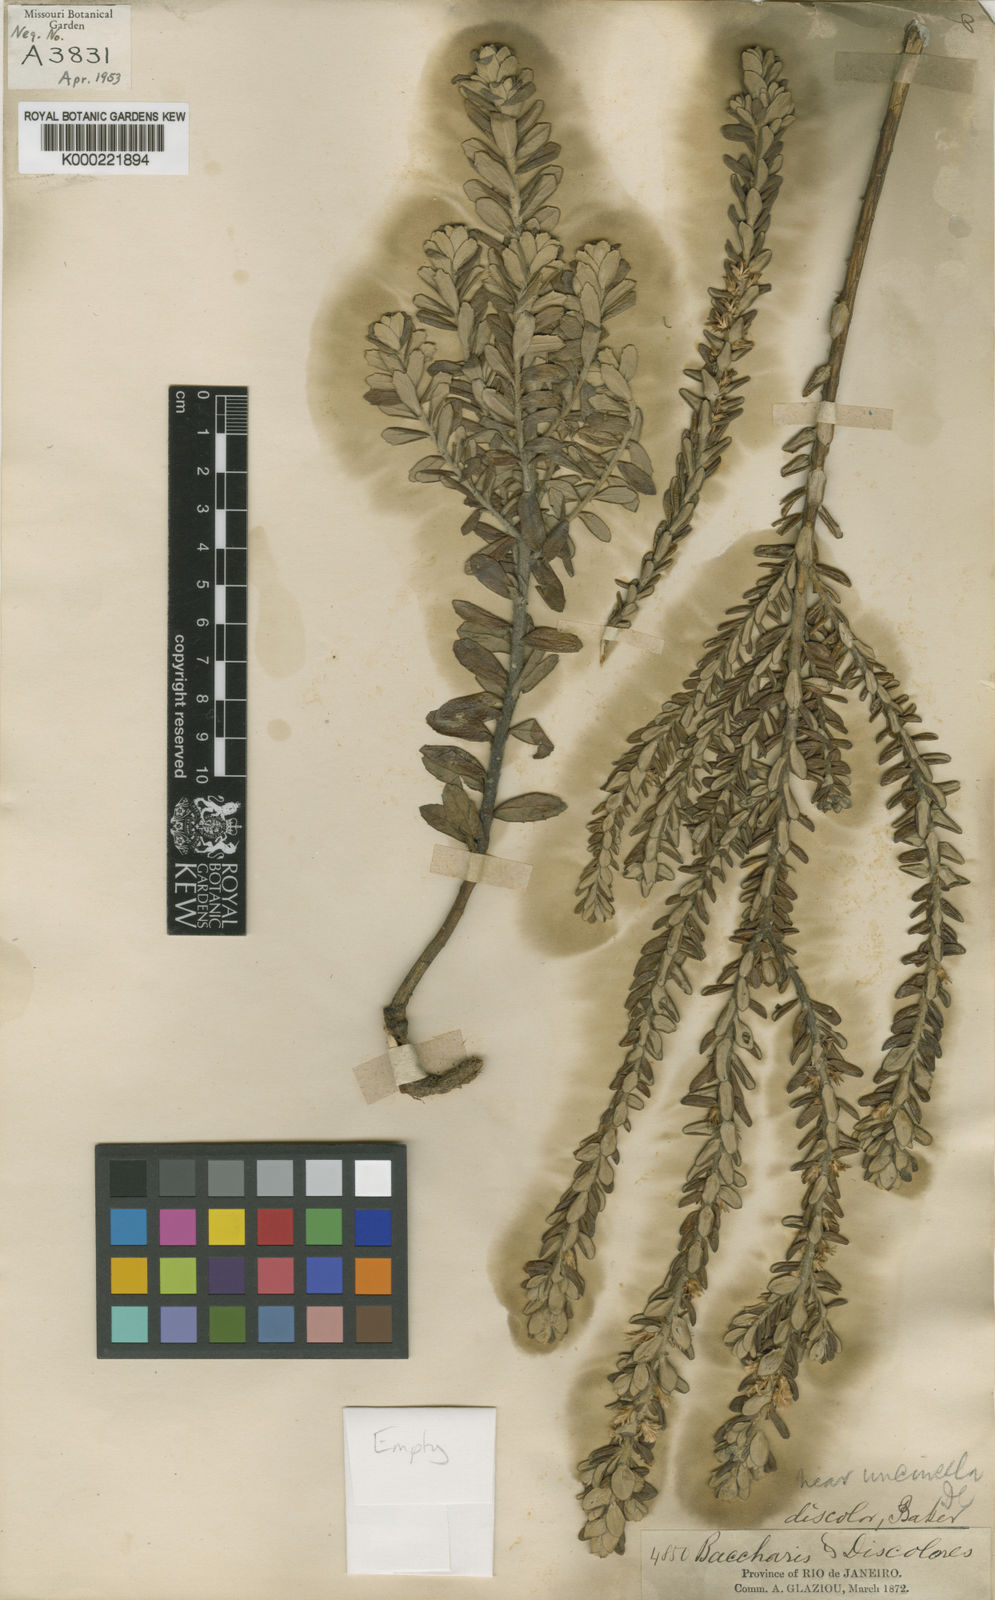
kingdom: Plantae
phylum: Tracheophyta
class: Magnoliopsida
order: Asterales
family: Asteraceae
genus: Baccharis
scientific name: Baccharis uncinella
